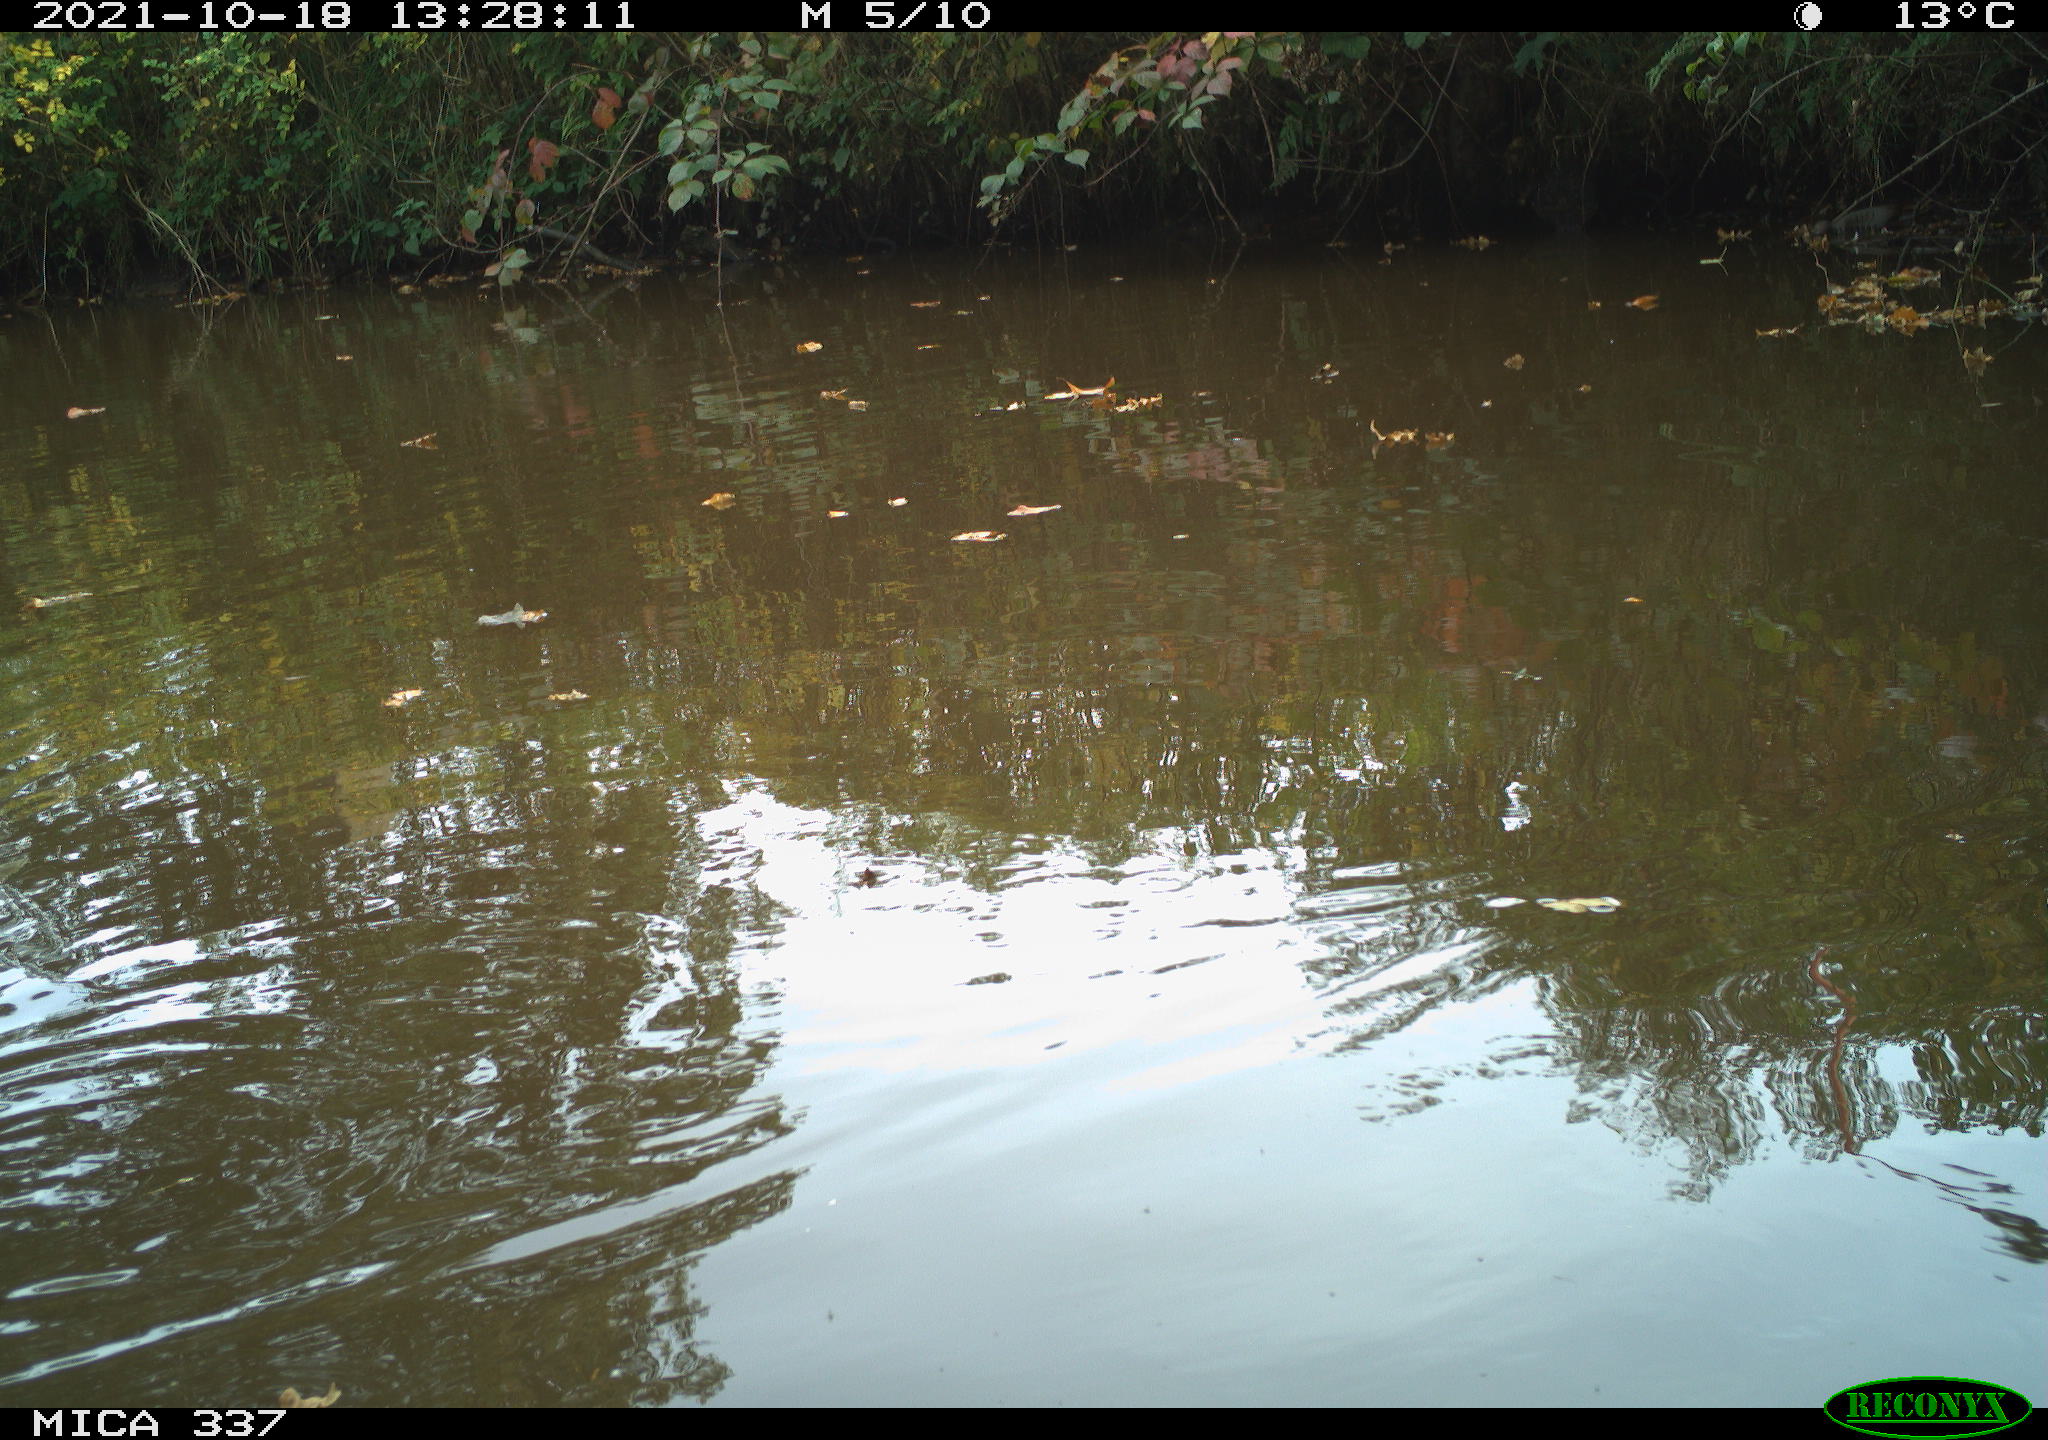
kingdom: Animalia
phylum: Chordata
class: Aves
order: Gruiformes
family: Rallidae
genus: Gallinula
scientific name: Gallinula chloropus
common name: Common moorhen
